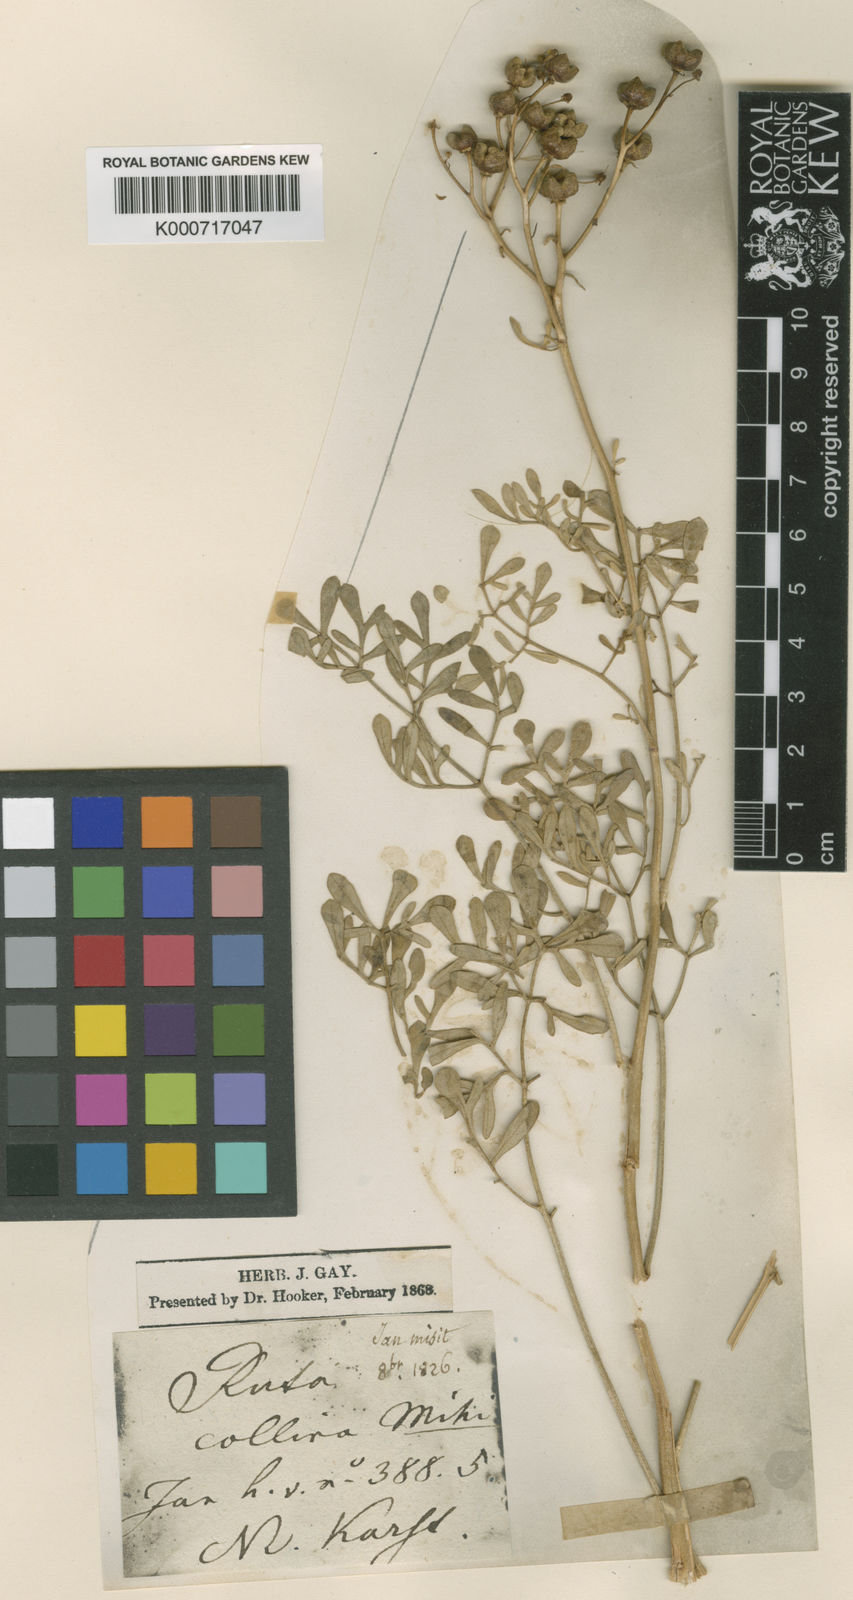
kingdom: Plantae
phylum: Tracheophyta
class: Magnoliopsida
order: Sapindales
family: Rutaceae
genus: Ruta
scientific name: Ruta graveolens
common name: Common rue
